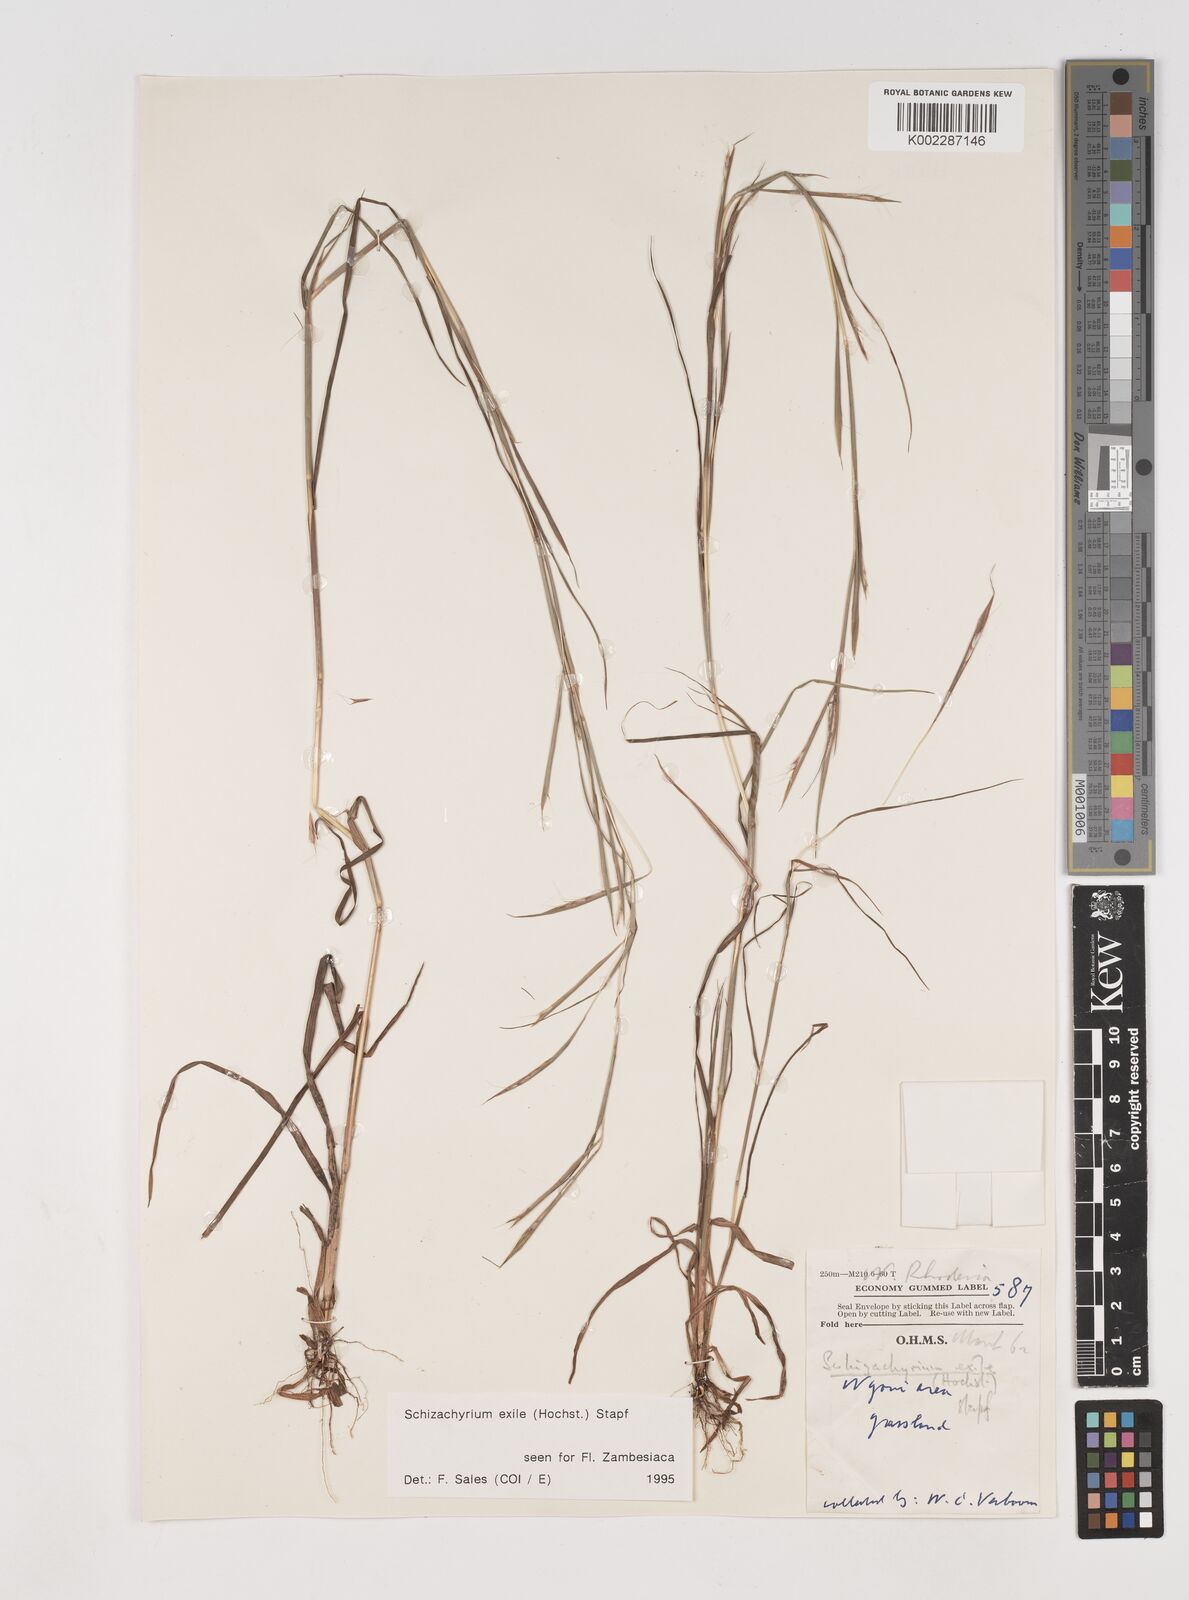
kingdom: Plantae
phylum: Tracheophyta
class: Liliopsida
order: Poales
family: Poaceae
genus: Schizachyrium
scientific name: Schizachyrium exile
